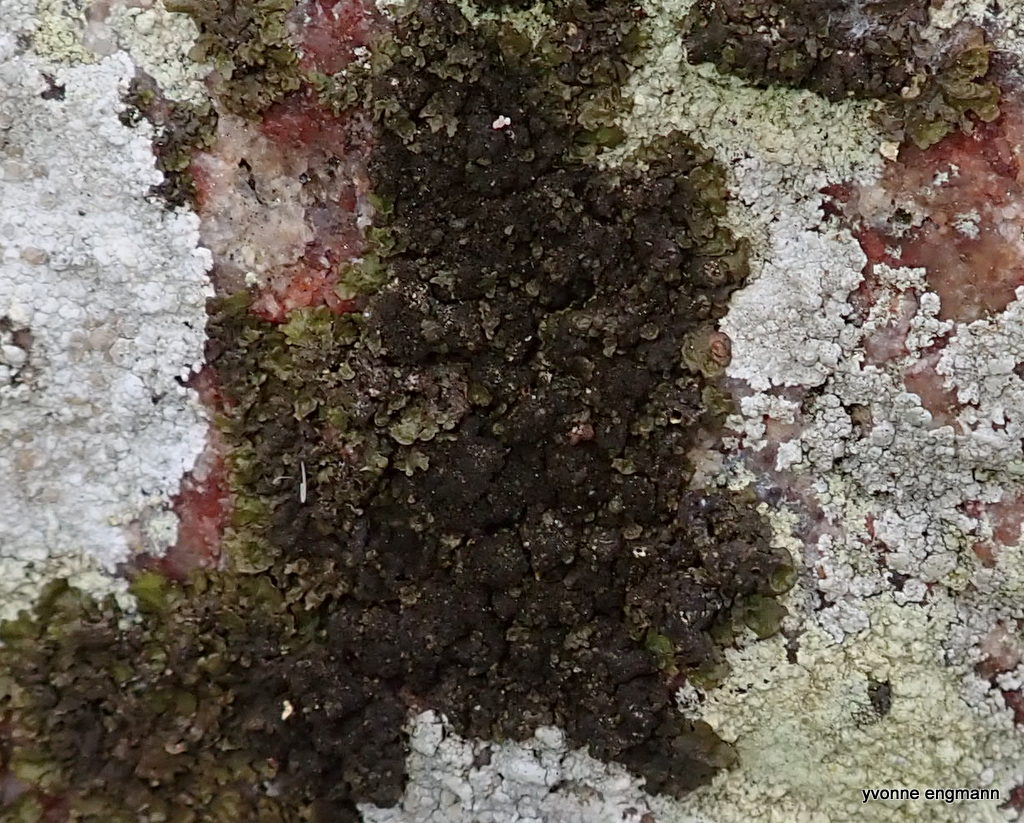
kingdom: Fungi
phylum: Ascomycota
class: Lecanoromycetes
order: Lecanorales
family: Parmeliaceae
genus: Melanelixia
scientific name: Melanelixia fuliginosa
